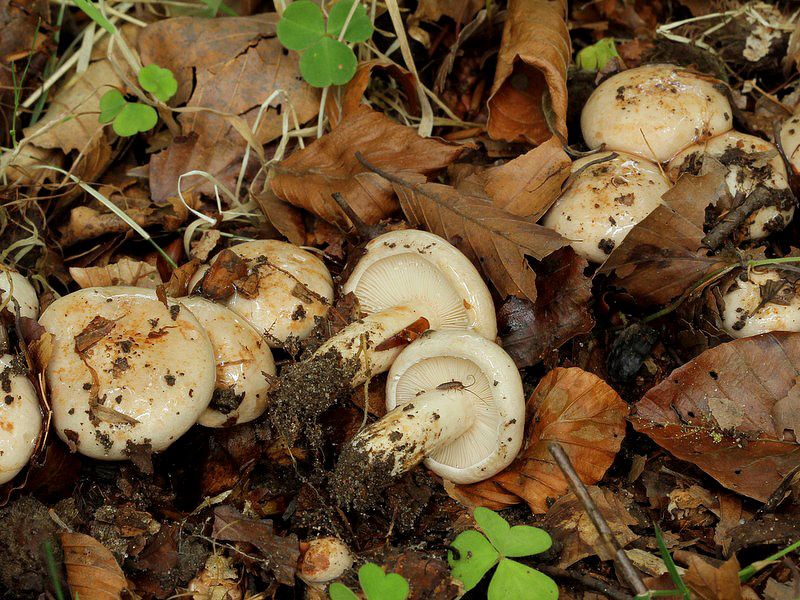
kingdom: Fungi
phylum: Basidiomycota
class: Agaricomycetes
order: Russulales
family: Russulaceae
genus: Lactarius
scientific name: Lactarius pallidus
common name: bleg mælkehat
